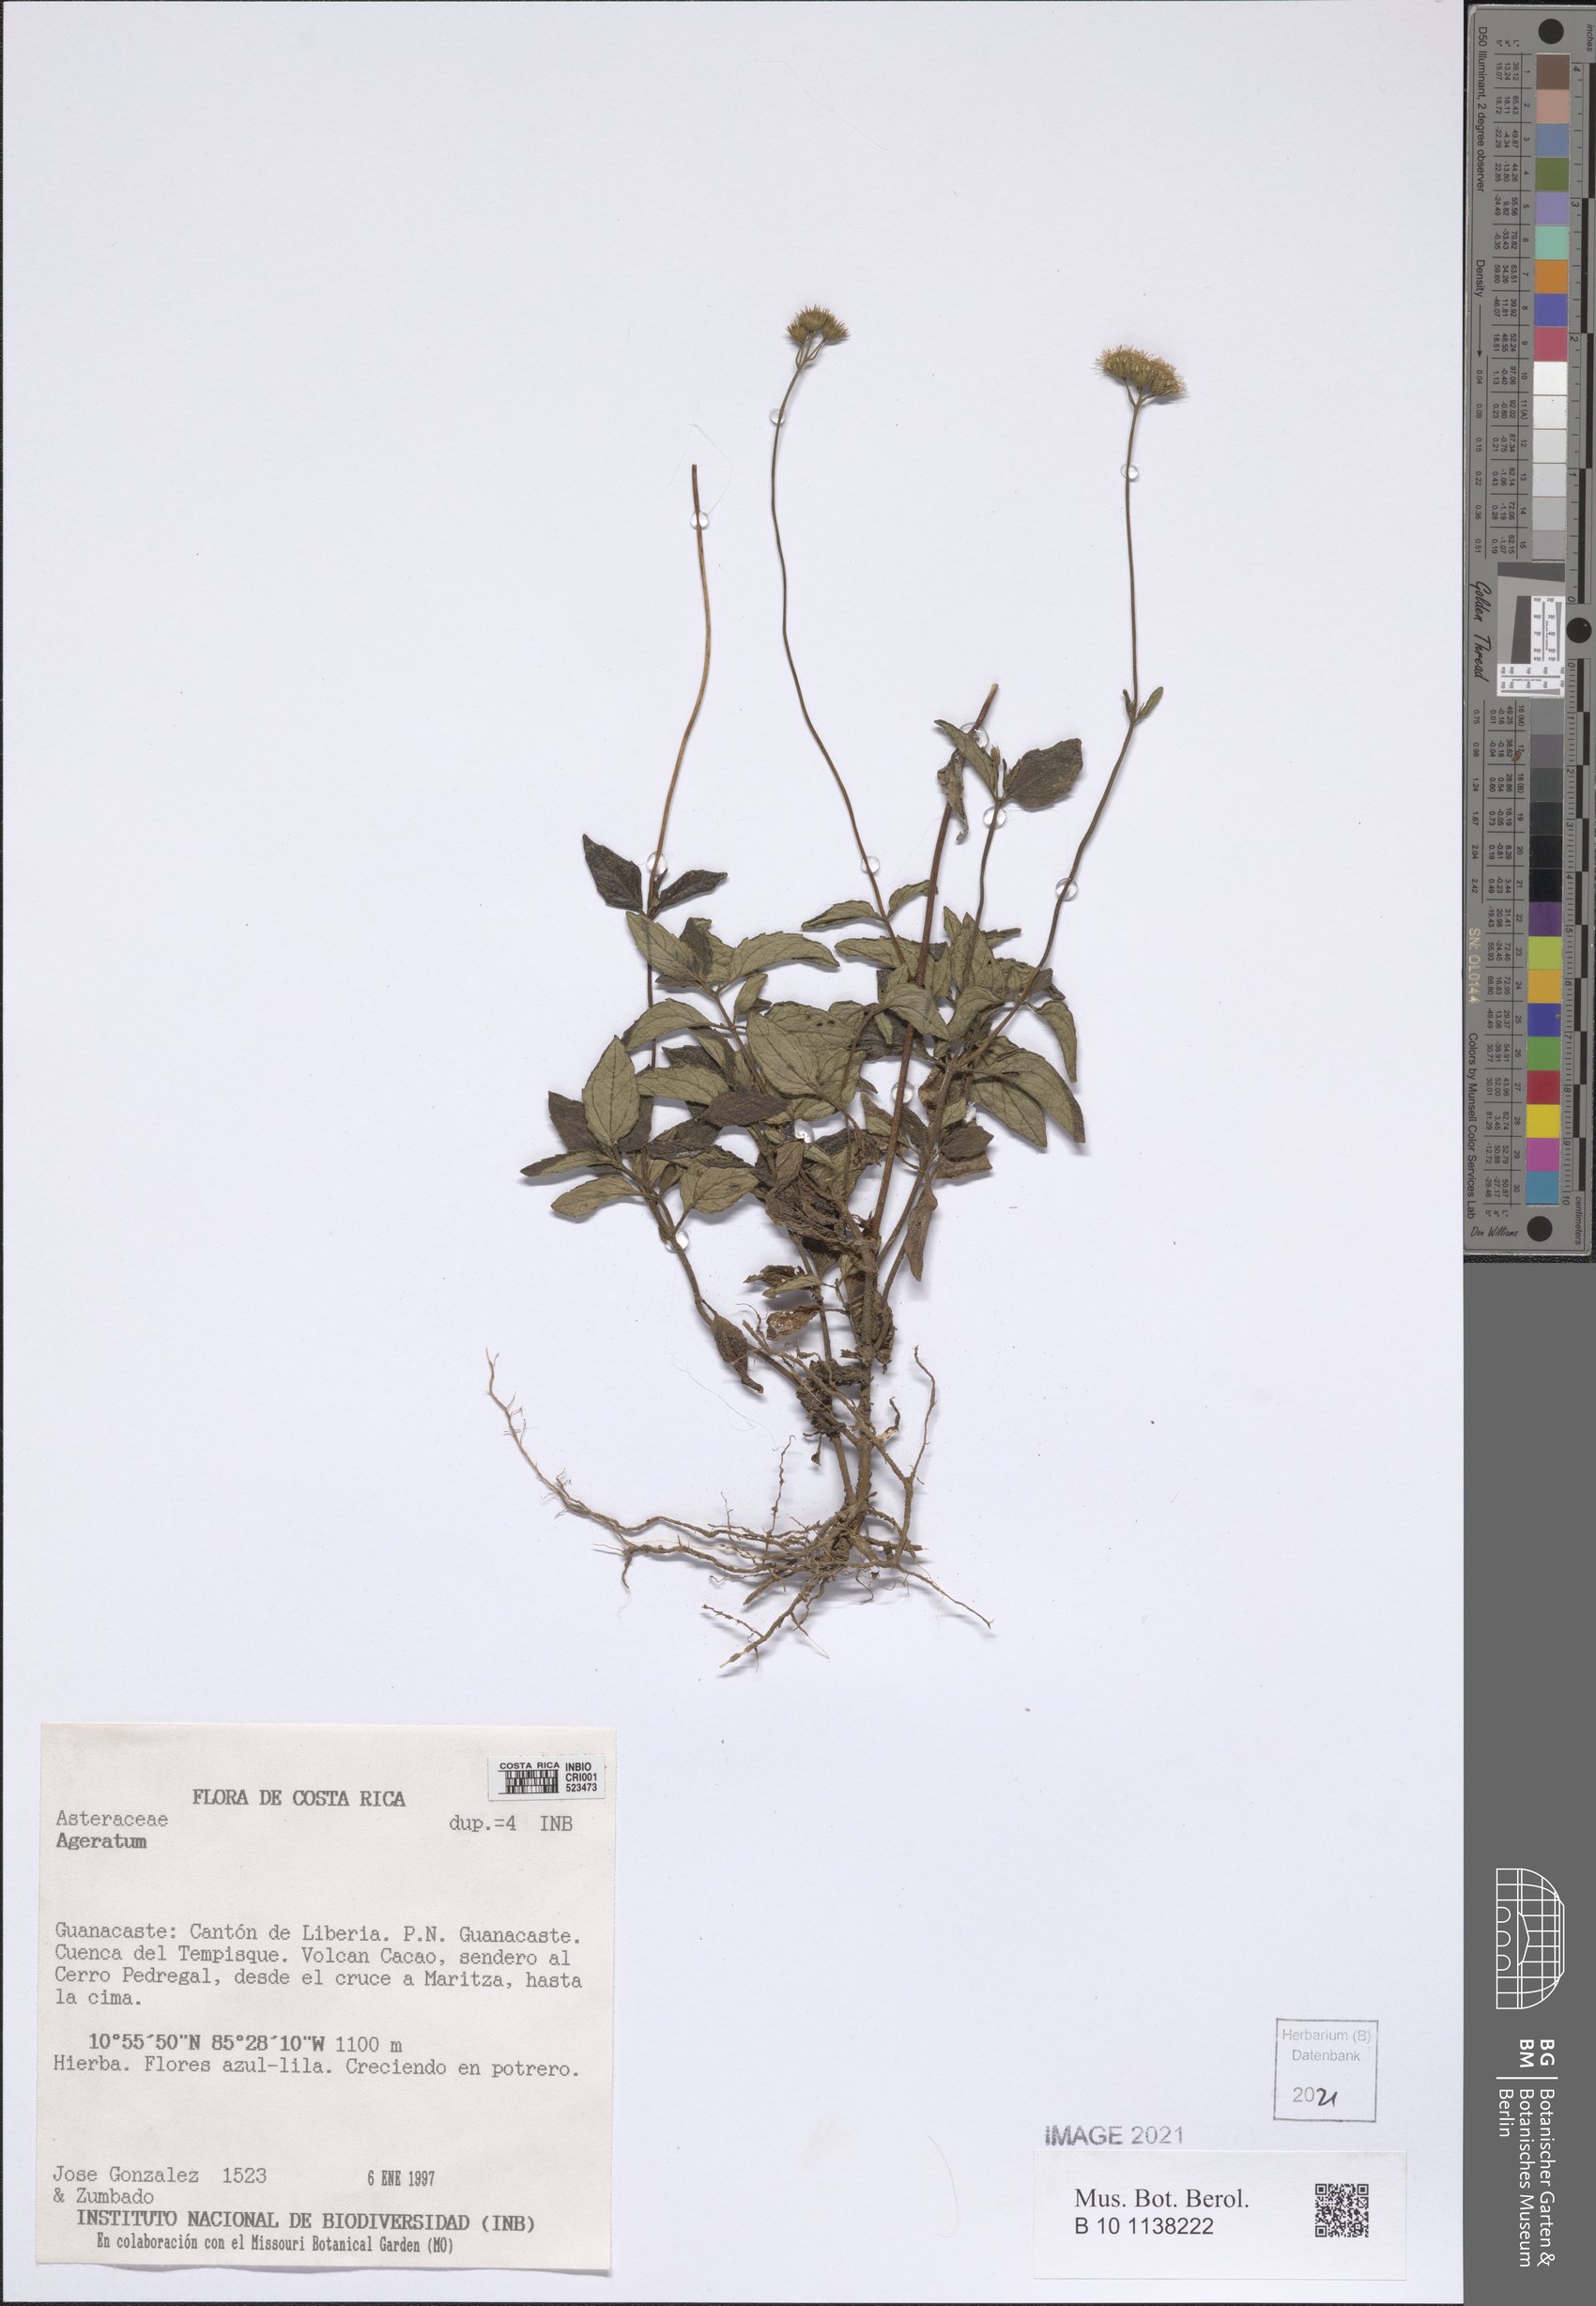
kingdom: Plantae
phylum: Tracheophyta
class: Magnoliopsida
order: Asterales
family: Asteraceae
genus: Ageratum
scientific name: Ageratum
